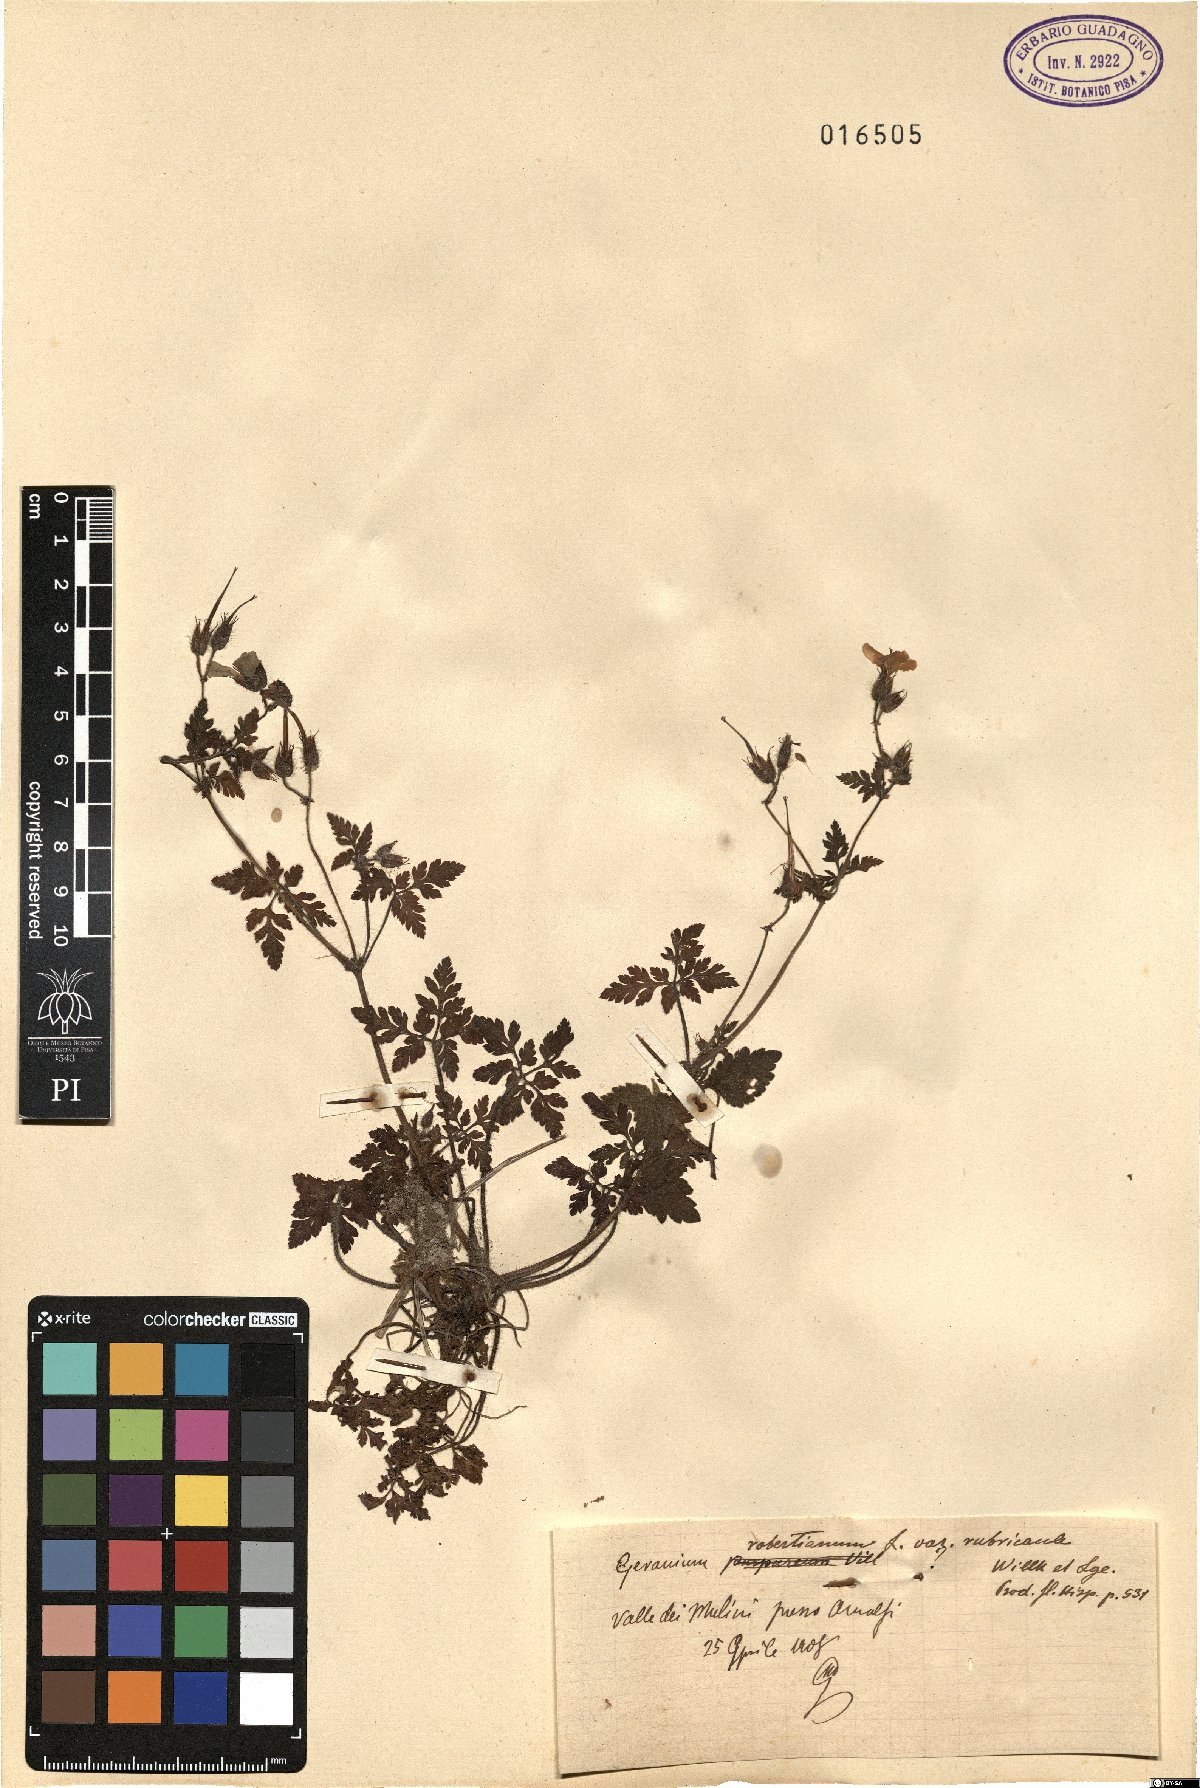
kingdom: Plantae
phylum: Tracheophyta
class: Magnoliopsida
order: Geraniales
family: Geraniaceae
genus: Geranium
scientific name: Geranium purpureum
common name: Little-robin
